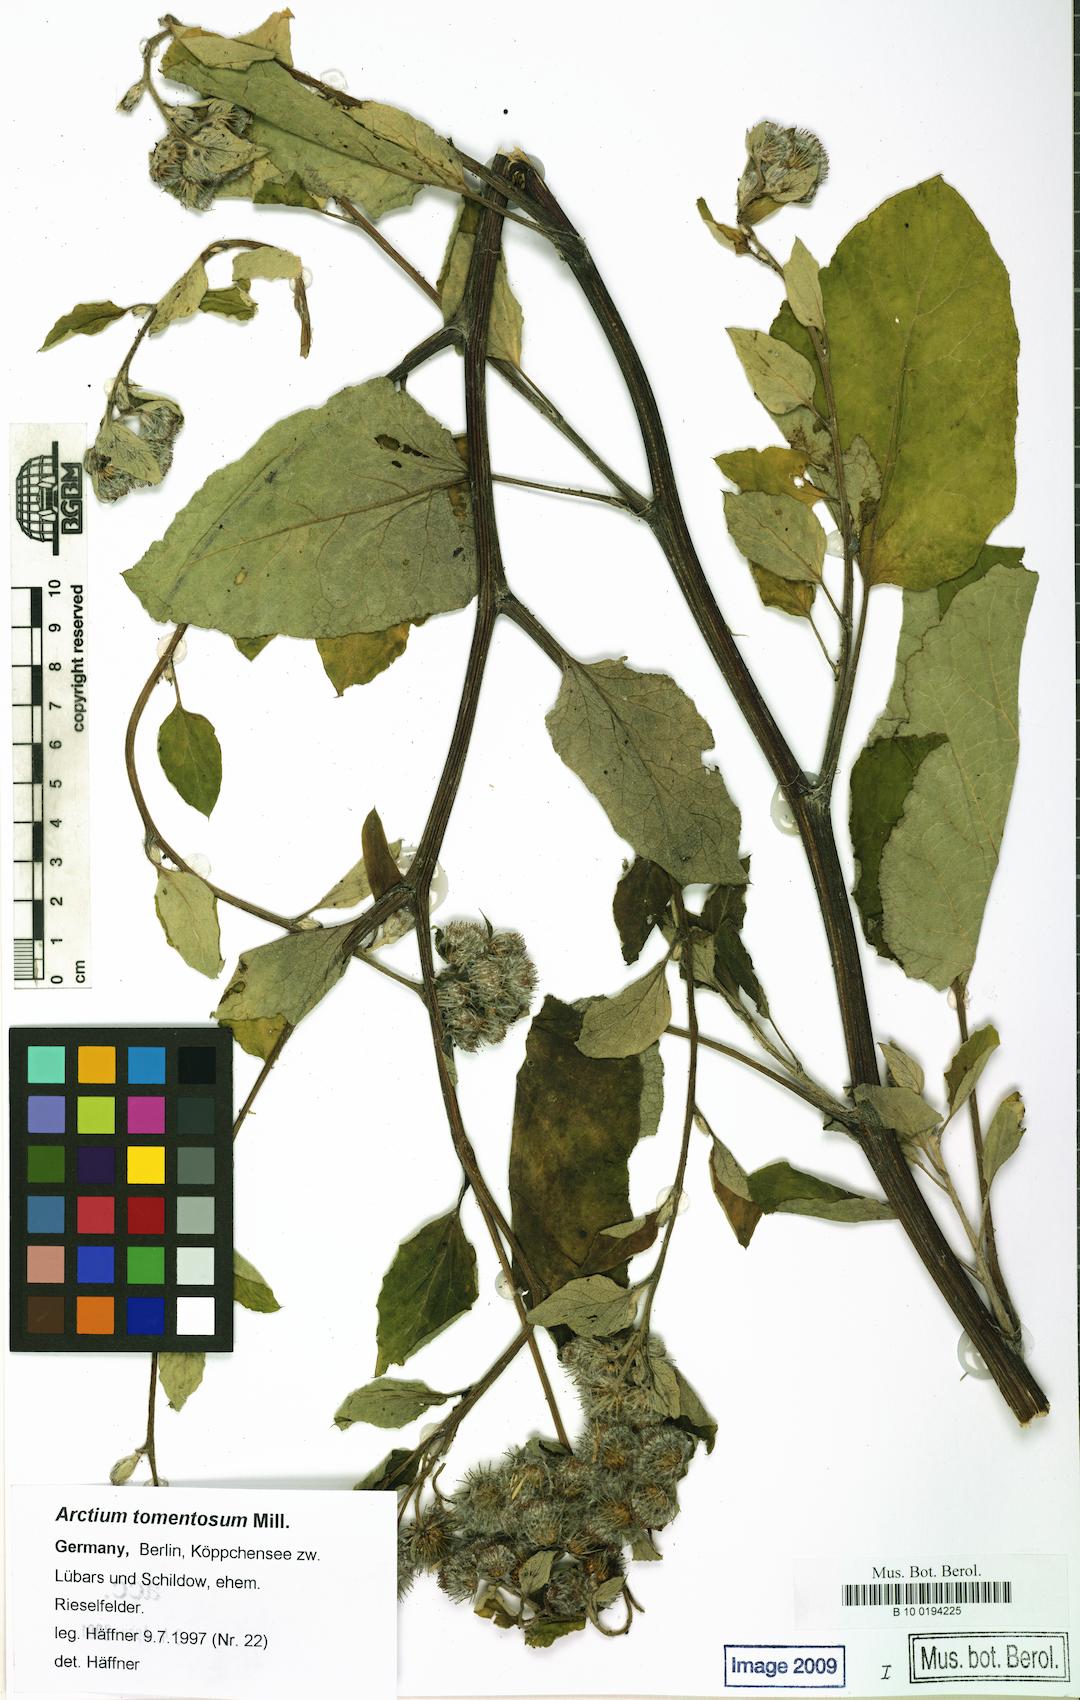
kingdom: Plantae
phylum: Tracheophyta
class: Magnoliopsida
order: Asterales
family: Asteraceae
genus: Arctium
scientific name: Arctium tomentosum
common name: Woolly burdock
